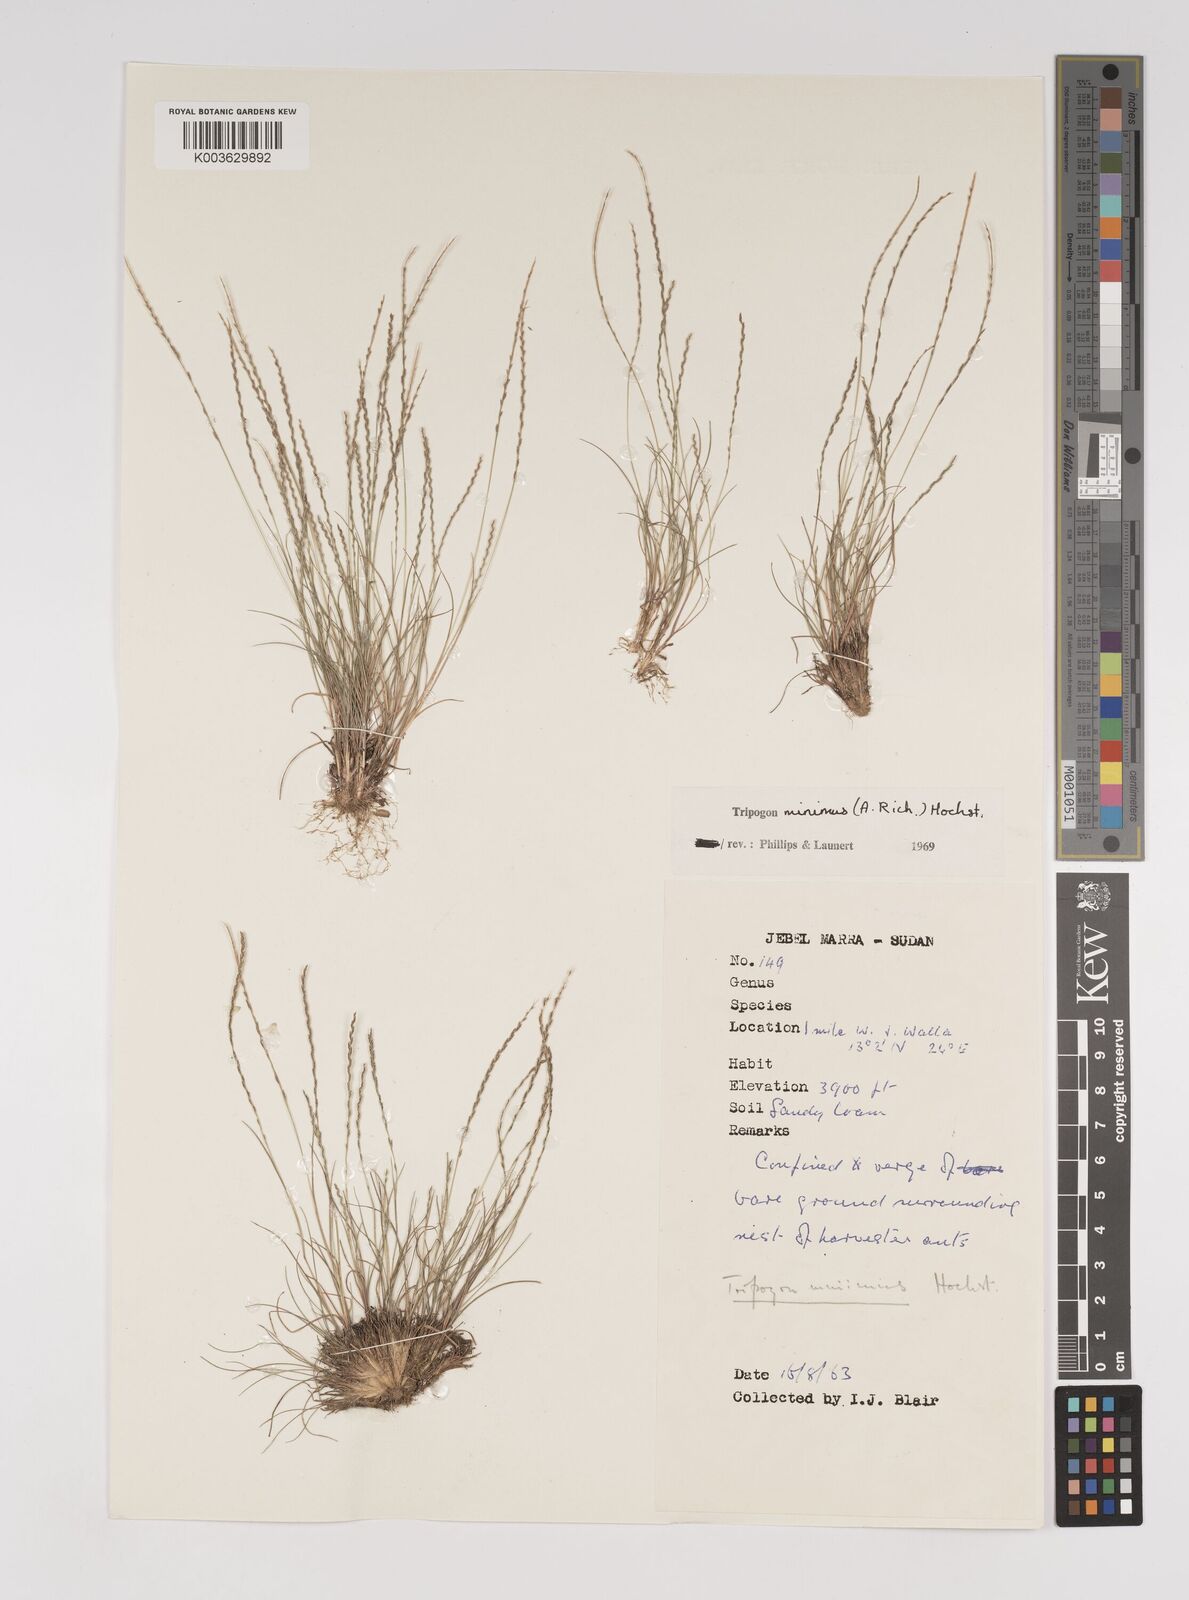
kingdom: Plantae
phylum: Tracheophyta
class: Liliopsida
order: Poales
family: Poaceae
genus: Tripogonella
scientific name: Tripogonella minima
